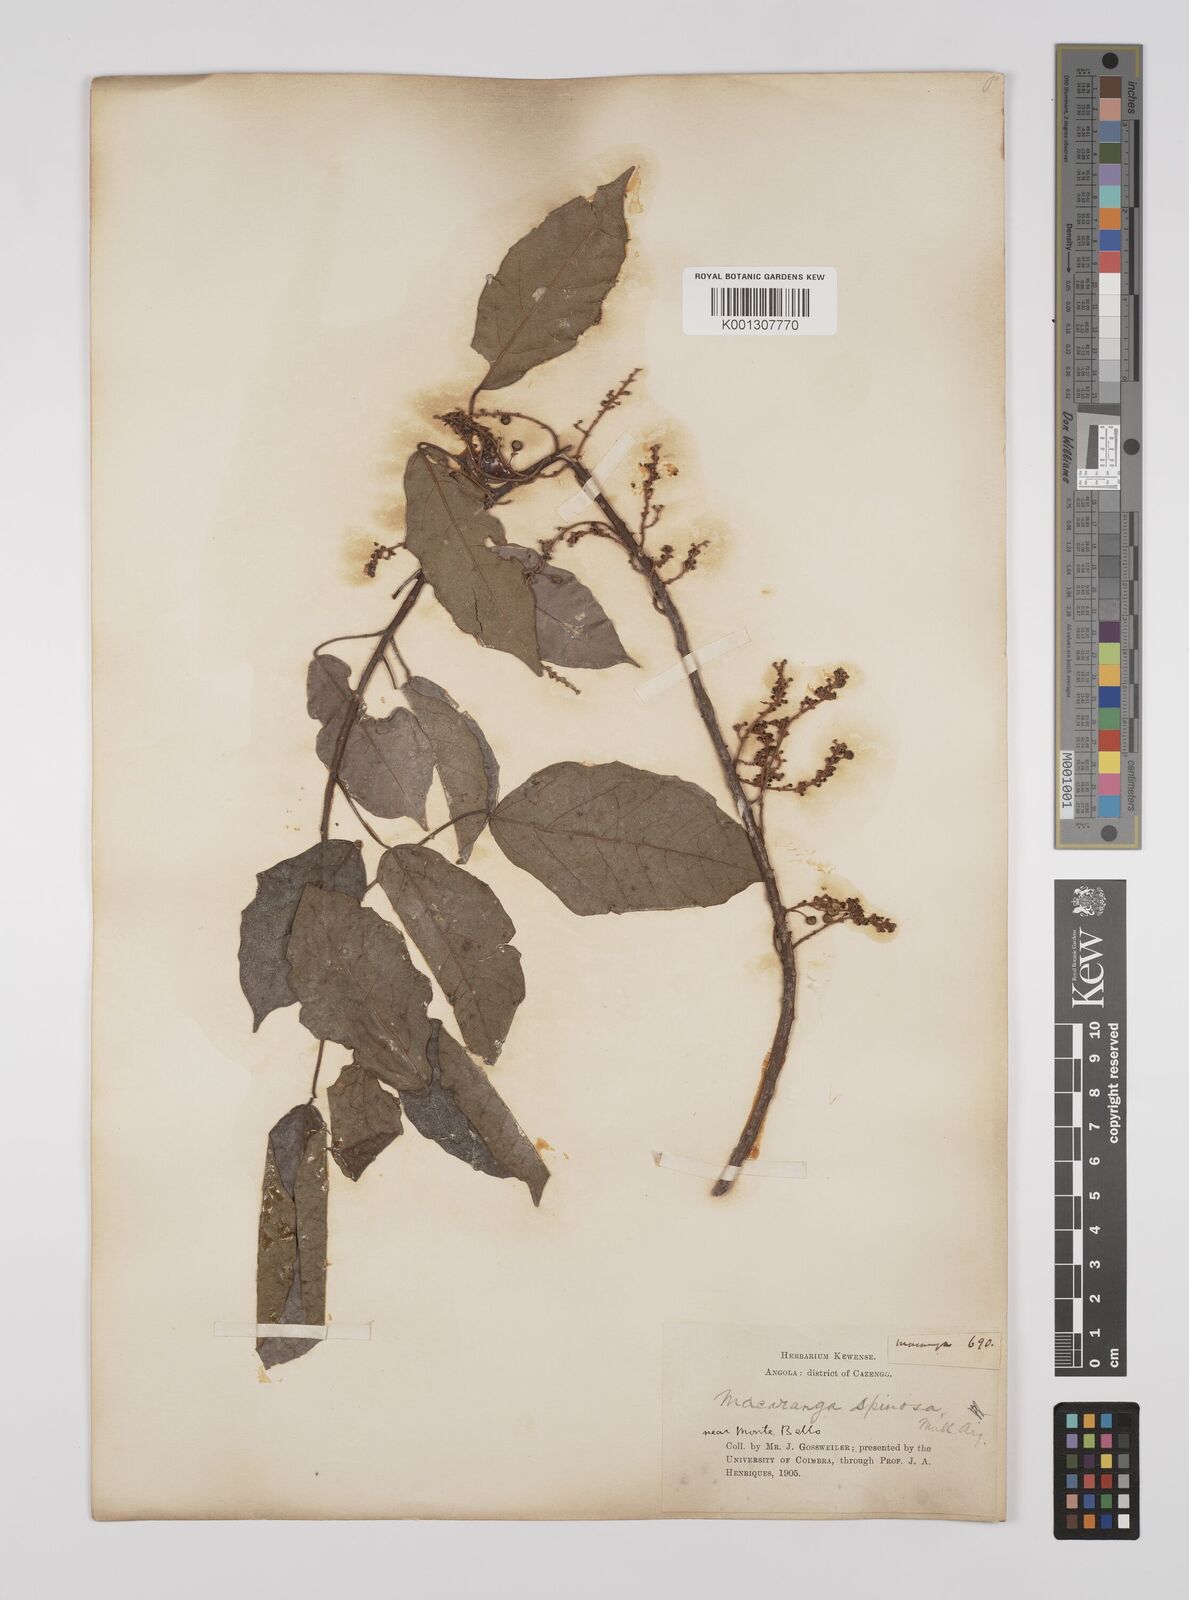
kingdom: Plantae
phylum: Tracheophyta
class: Magnoliopsida
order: Malpighiales
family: Euphorbiaceae
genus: Macaranga
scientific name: Macaranga
